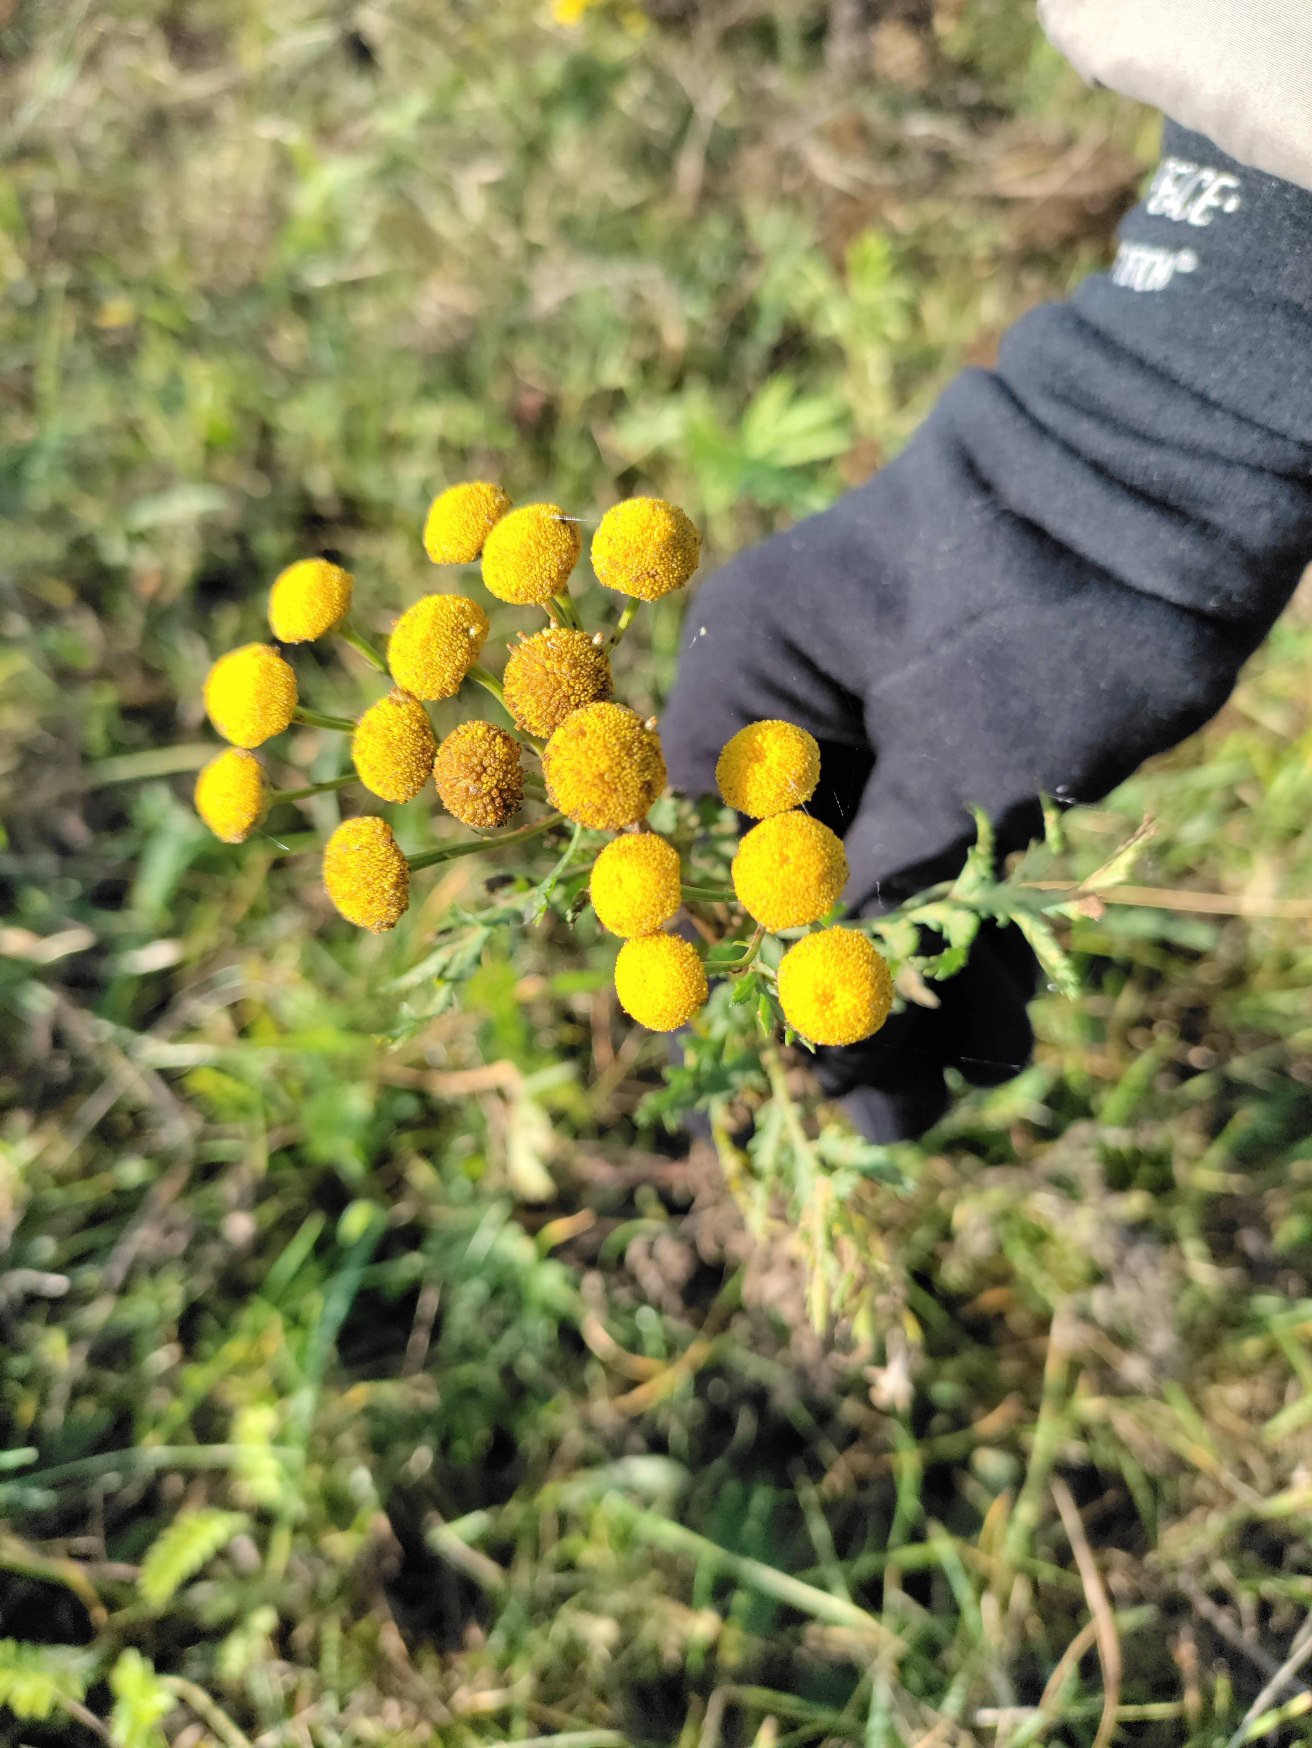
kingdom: Plantae
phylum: Tracheophyta
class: Magnoliopsida
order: Asterales
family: Asteraceae
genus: Tanacetum
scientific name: Tanacetum vulgare
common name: Rejnfan
